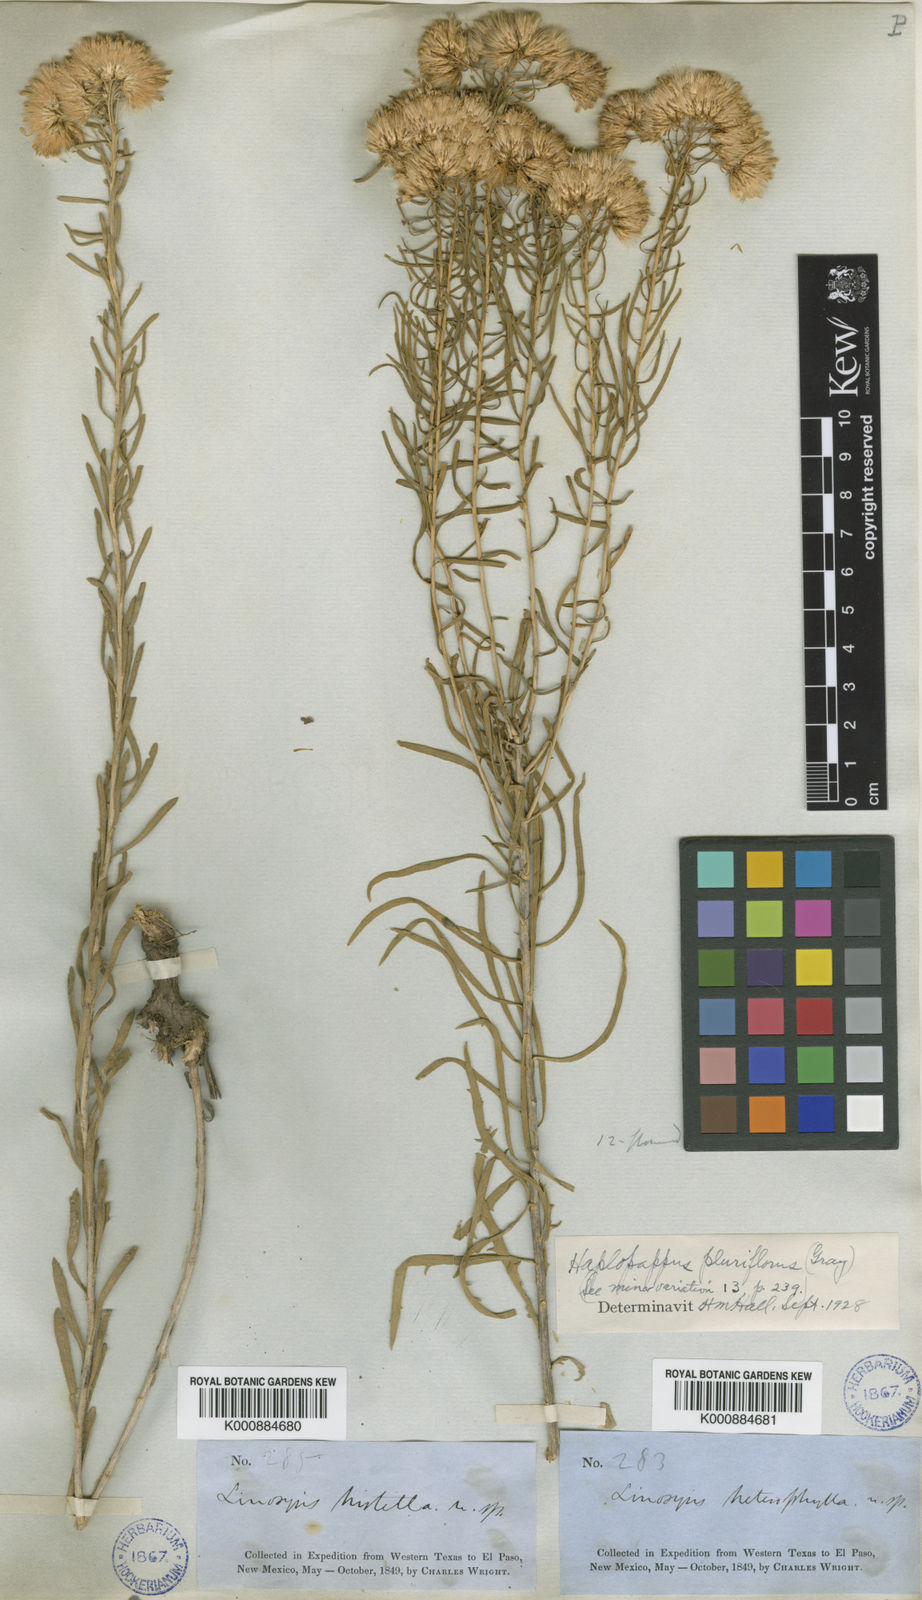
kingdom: Plantae
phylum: Tracheophyta
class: Magnoliopsida
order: Asterales
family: Asteraceae
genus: Isocoma
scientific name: Isocoma pluriflora
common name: Southern jimmyweed
